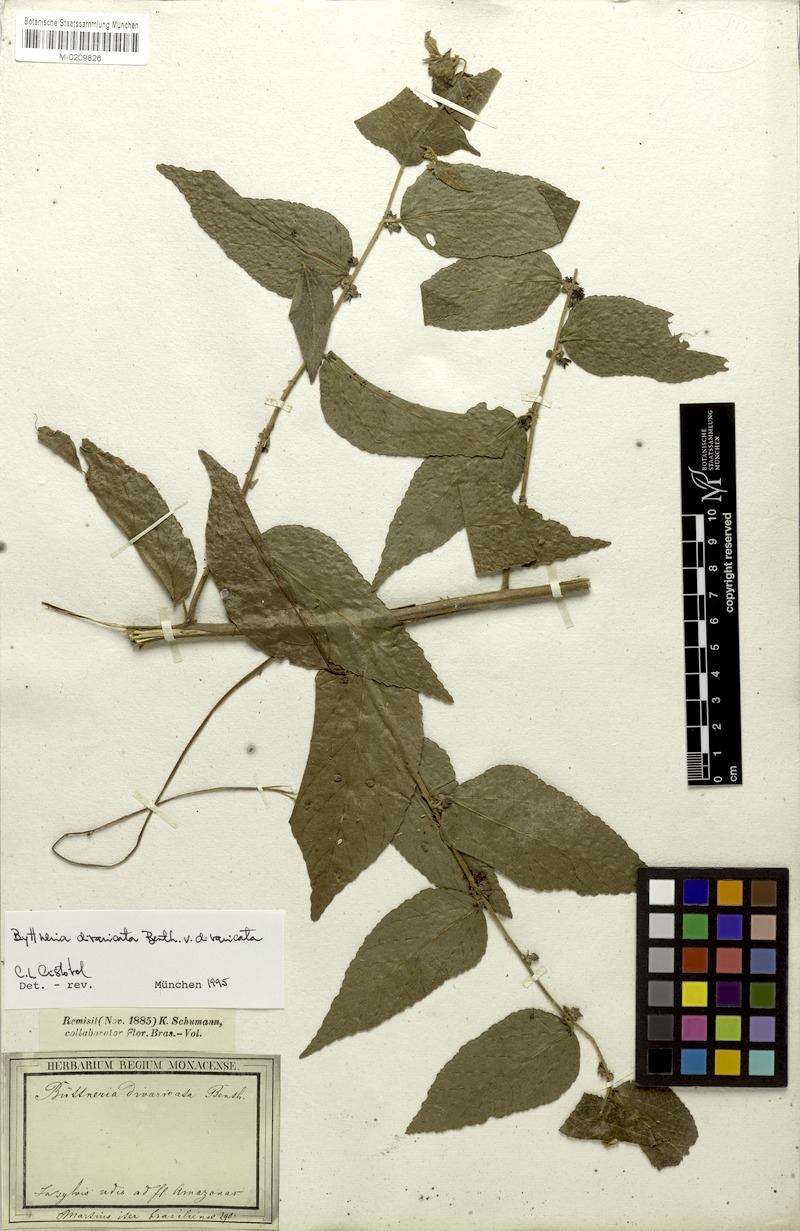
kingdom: Plantae
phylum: Tracheophyta
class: Magnoliopsida
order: Malvales
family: Malvaceae
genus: Byttneria
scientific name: Byttneria divaricata
